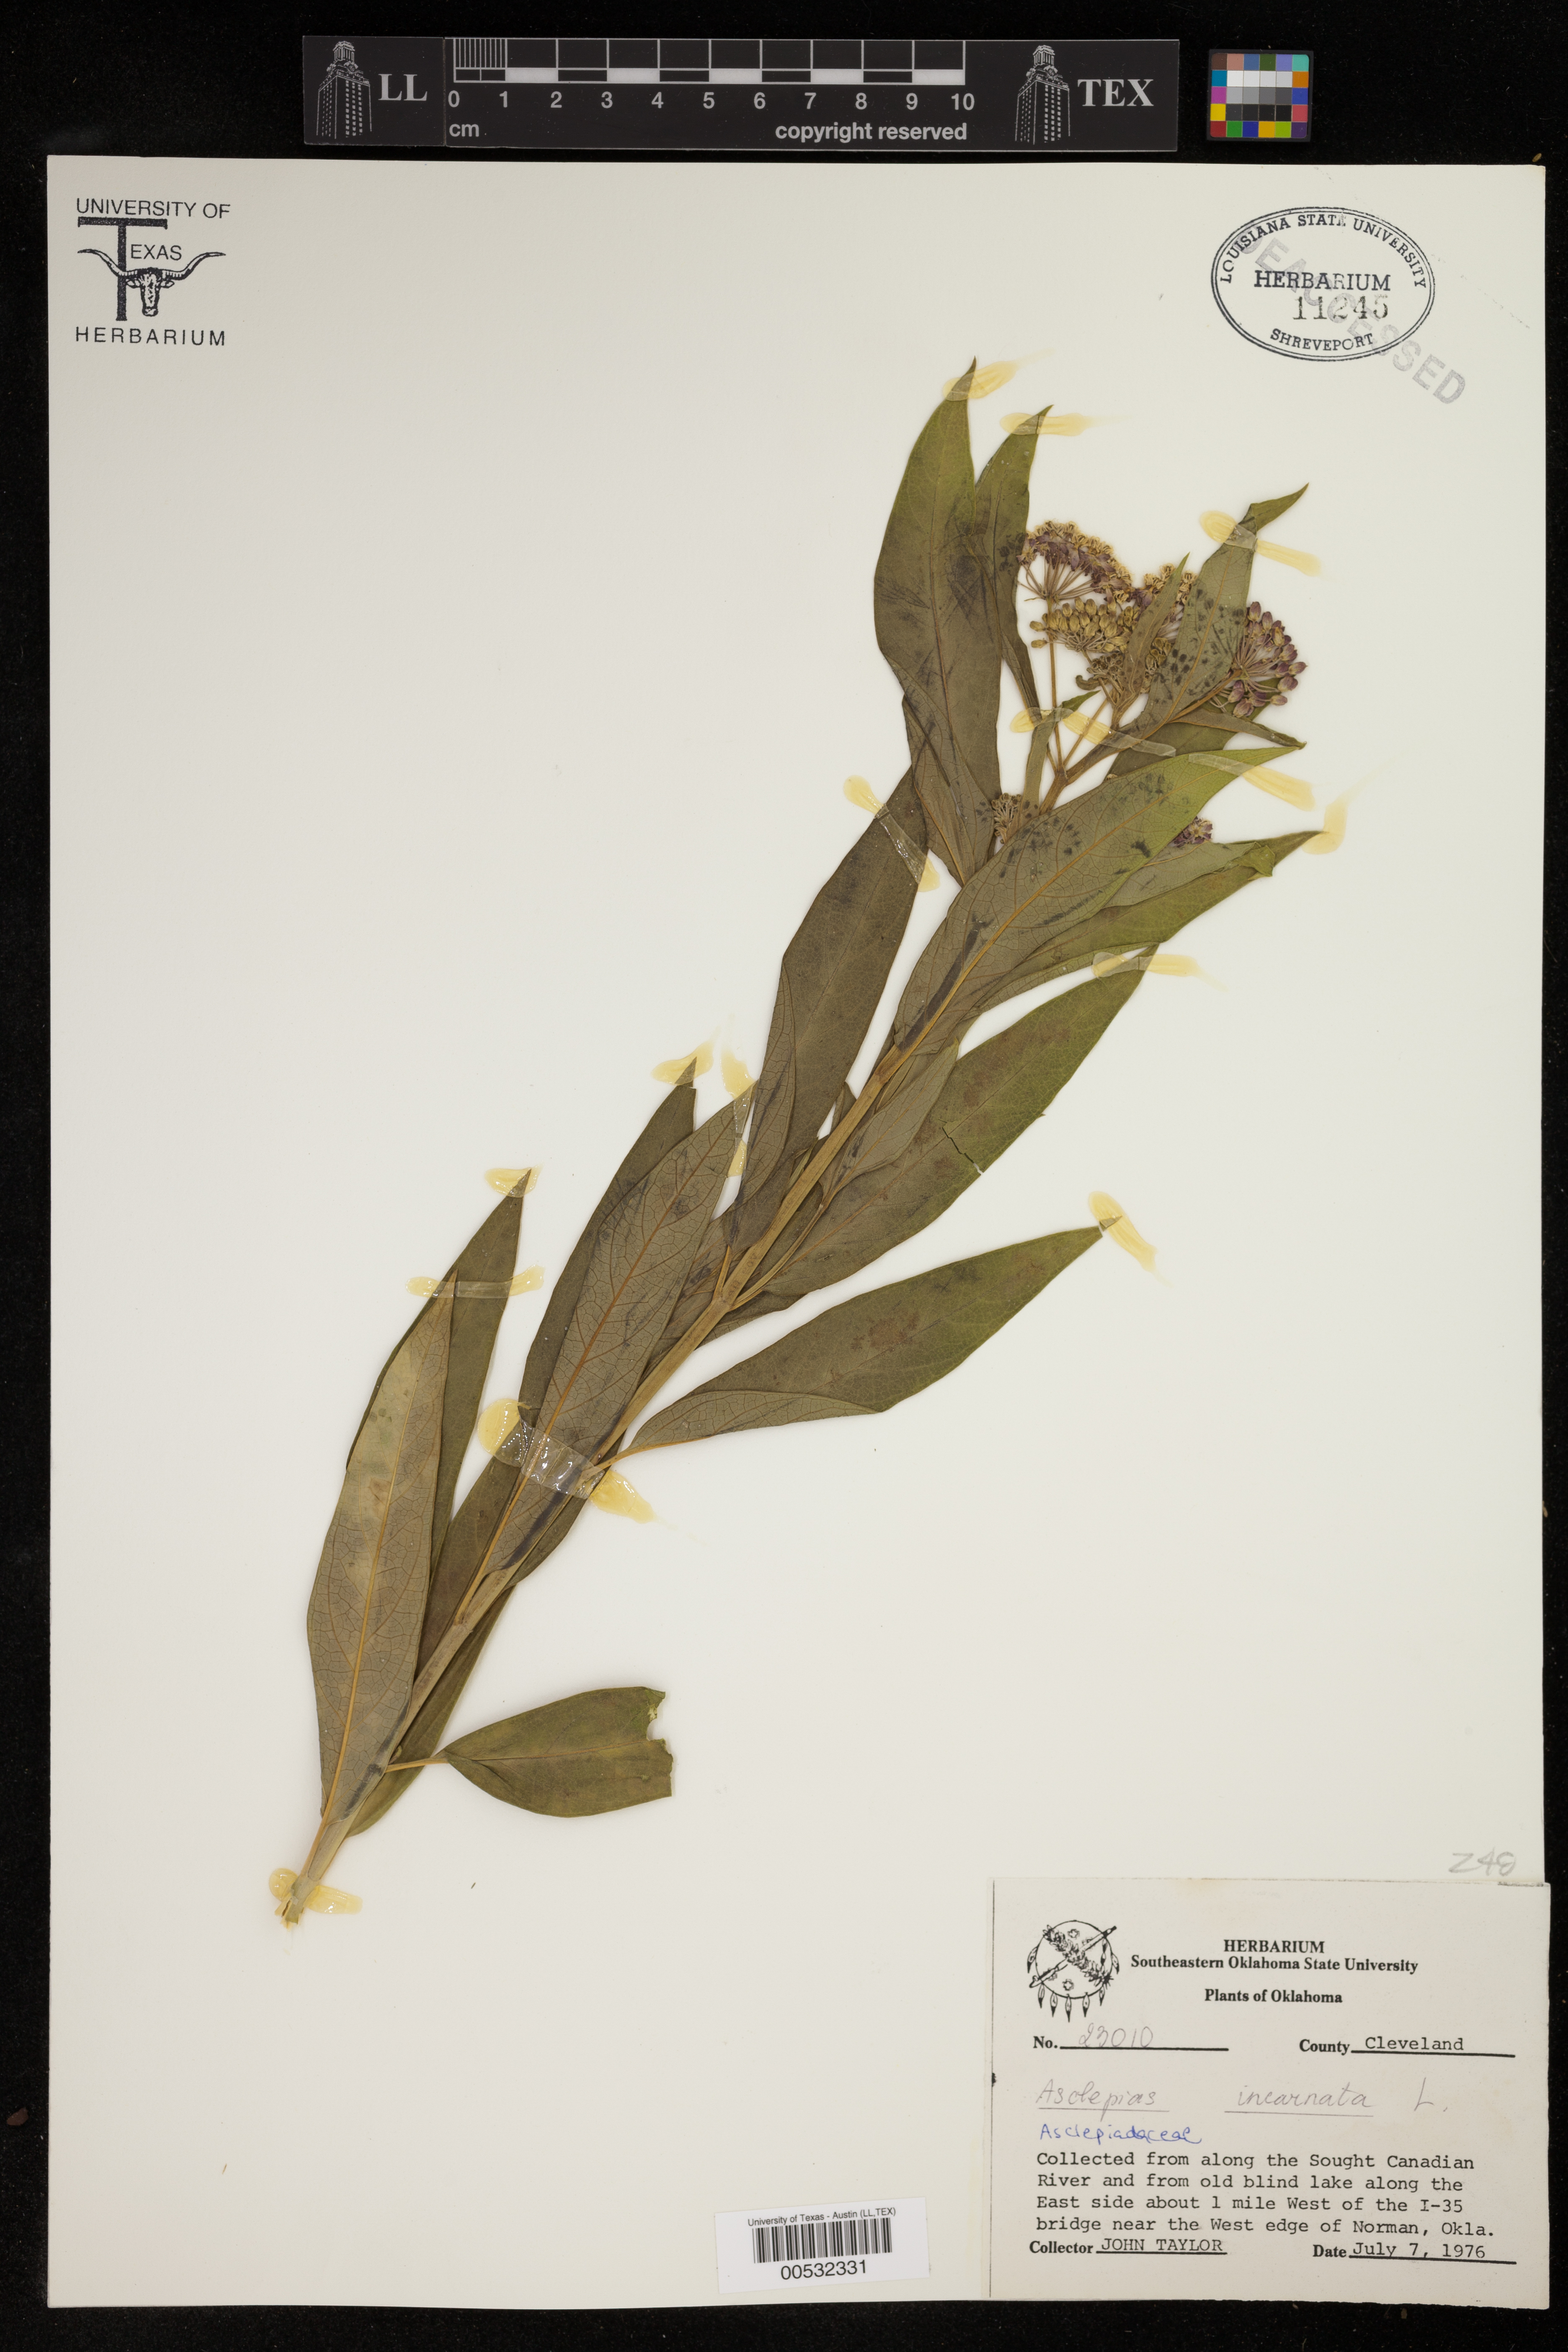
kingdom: Plantae
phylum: Tracheophyta
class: Magnoliopsida
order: Gentianales
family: Apocynaceae
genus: Asclepias
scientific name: Asclepias incarnata
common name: Swamp milkweed
